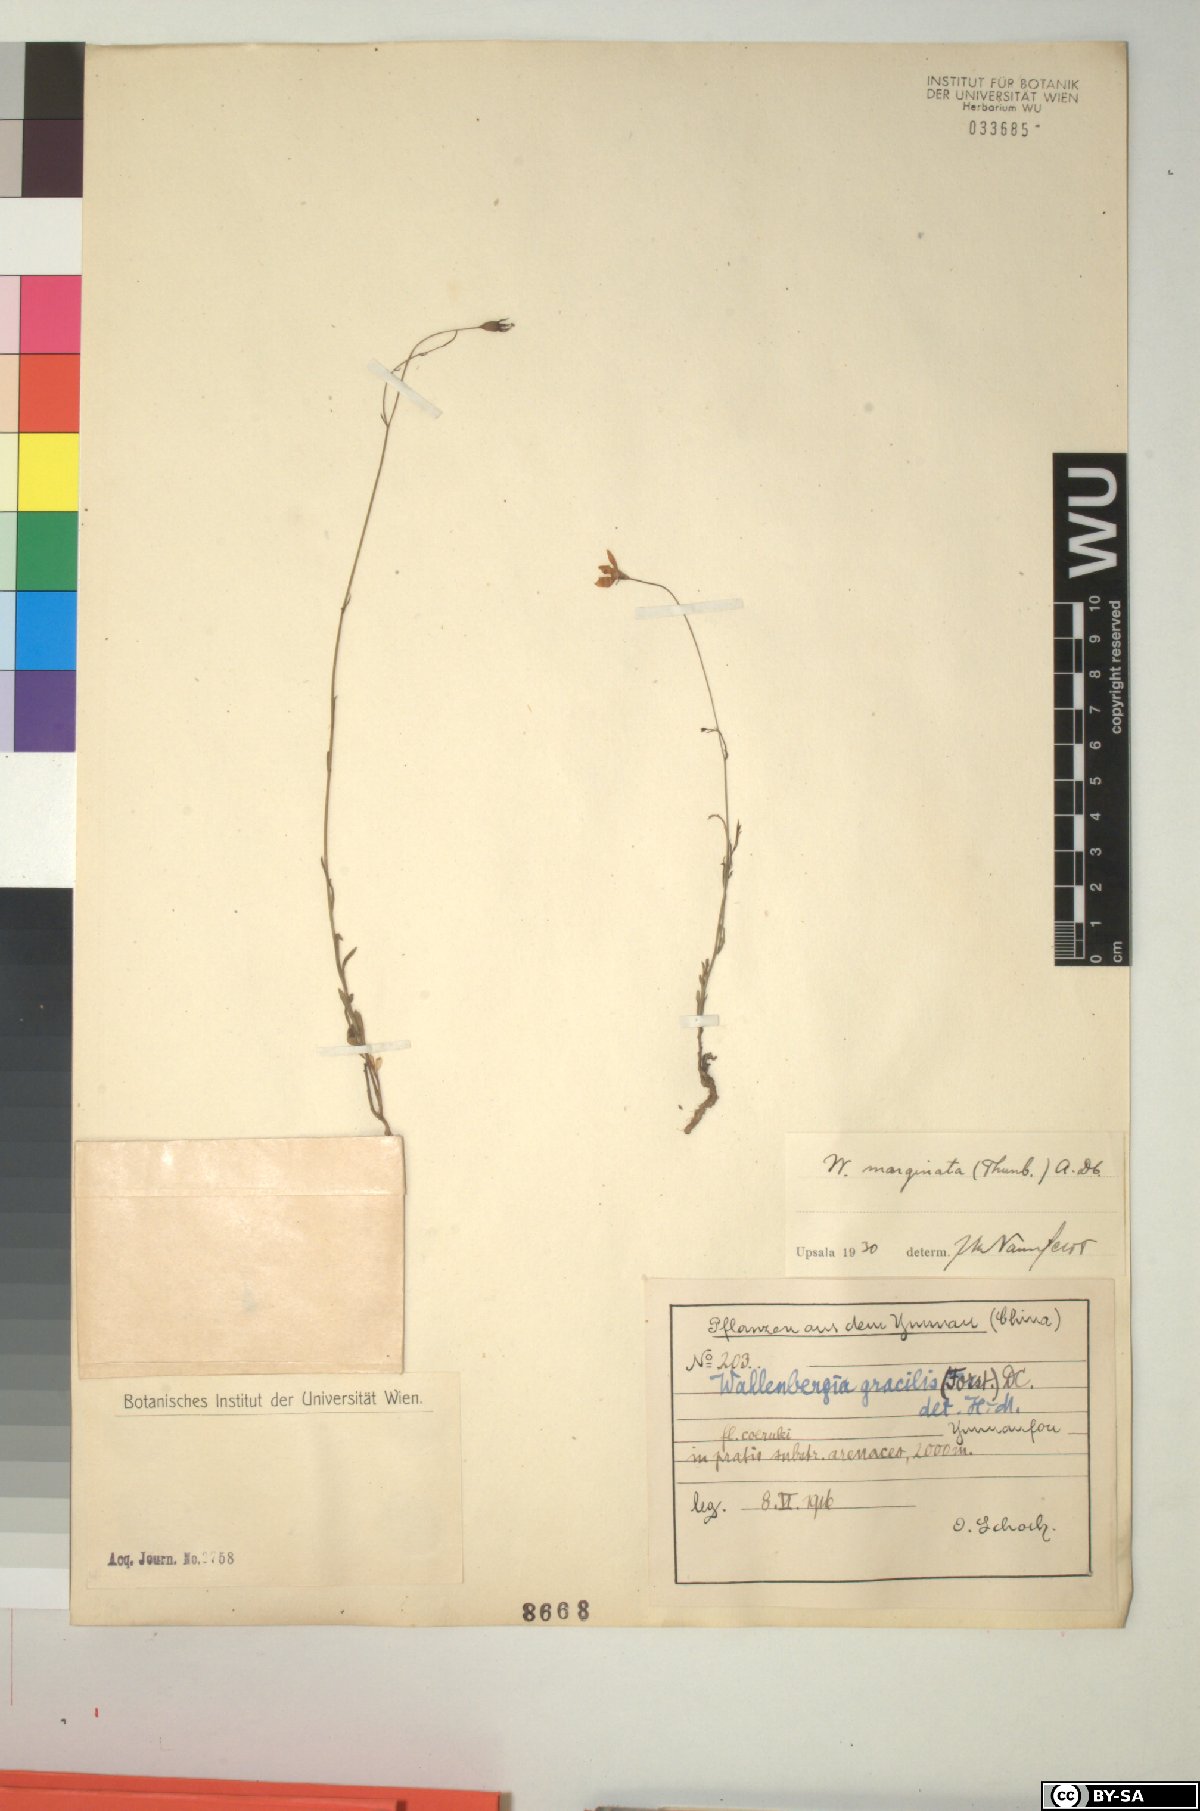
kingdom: Plantae
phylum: Tracheophyta
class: Magnoliopsida
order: Asterales
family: Campanulaceae
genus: Wahlenbergia
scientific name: Wahlenbergia marginata
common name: Southern rockbell
